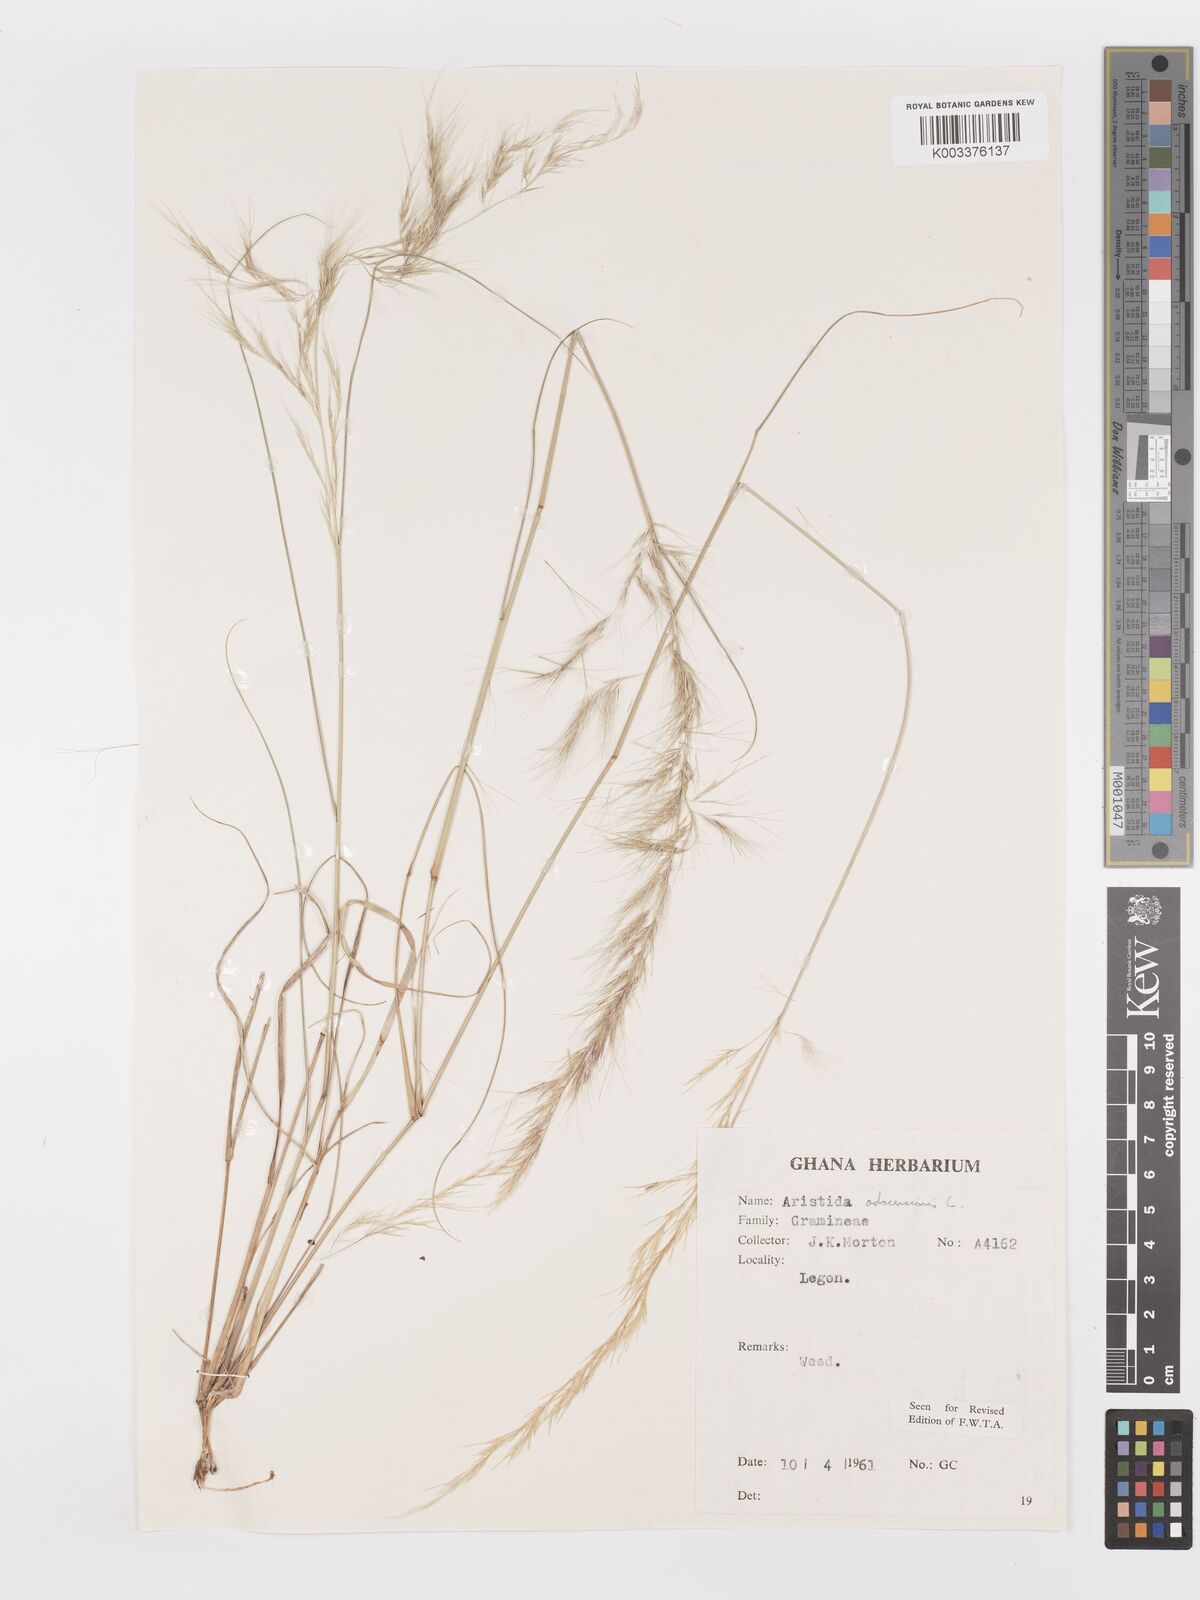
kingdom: Plantae
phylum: Tracheophyta
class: Liliopsida
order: Poales
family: Poaceae
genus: Aristida
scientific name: Aristida adscensionis
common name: Sixweeks threeawn
